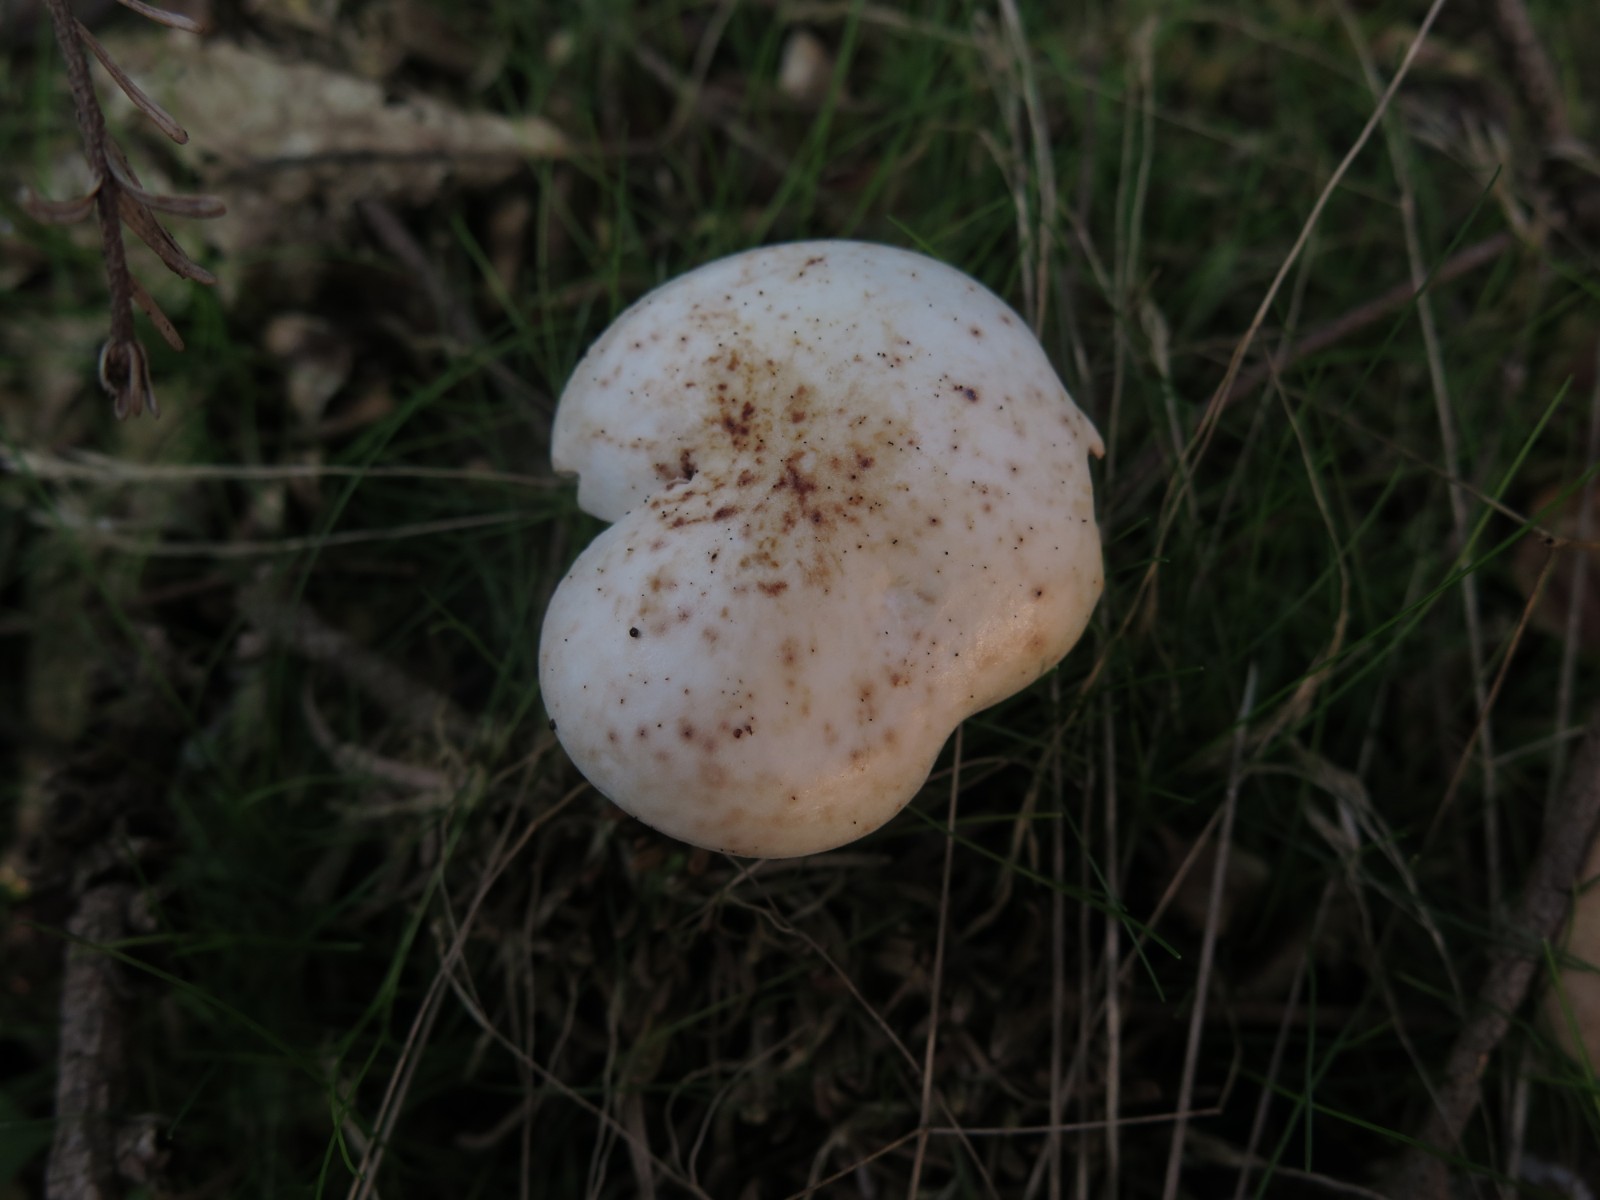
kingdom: Fungi
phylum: Basidiomycota
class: Agaricomycetes
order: Agaricales
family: Omphalotaceae
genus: Rhodocollybia
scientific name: Rhodocollybia maculata
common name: plettet fladhat
